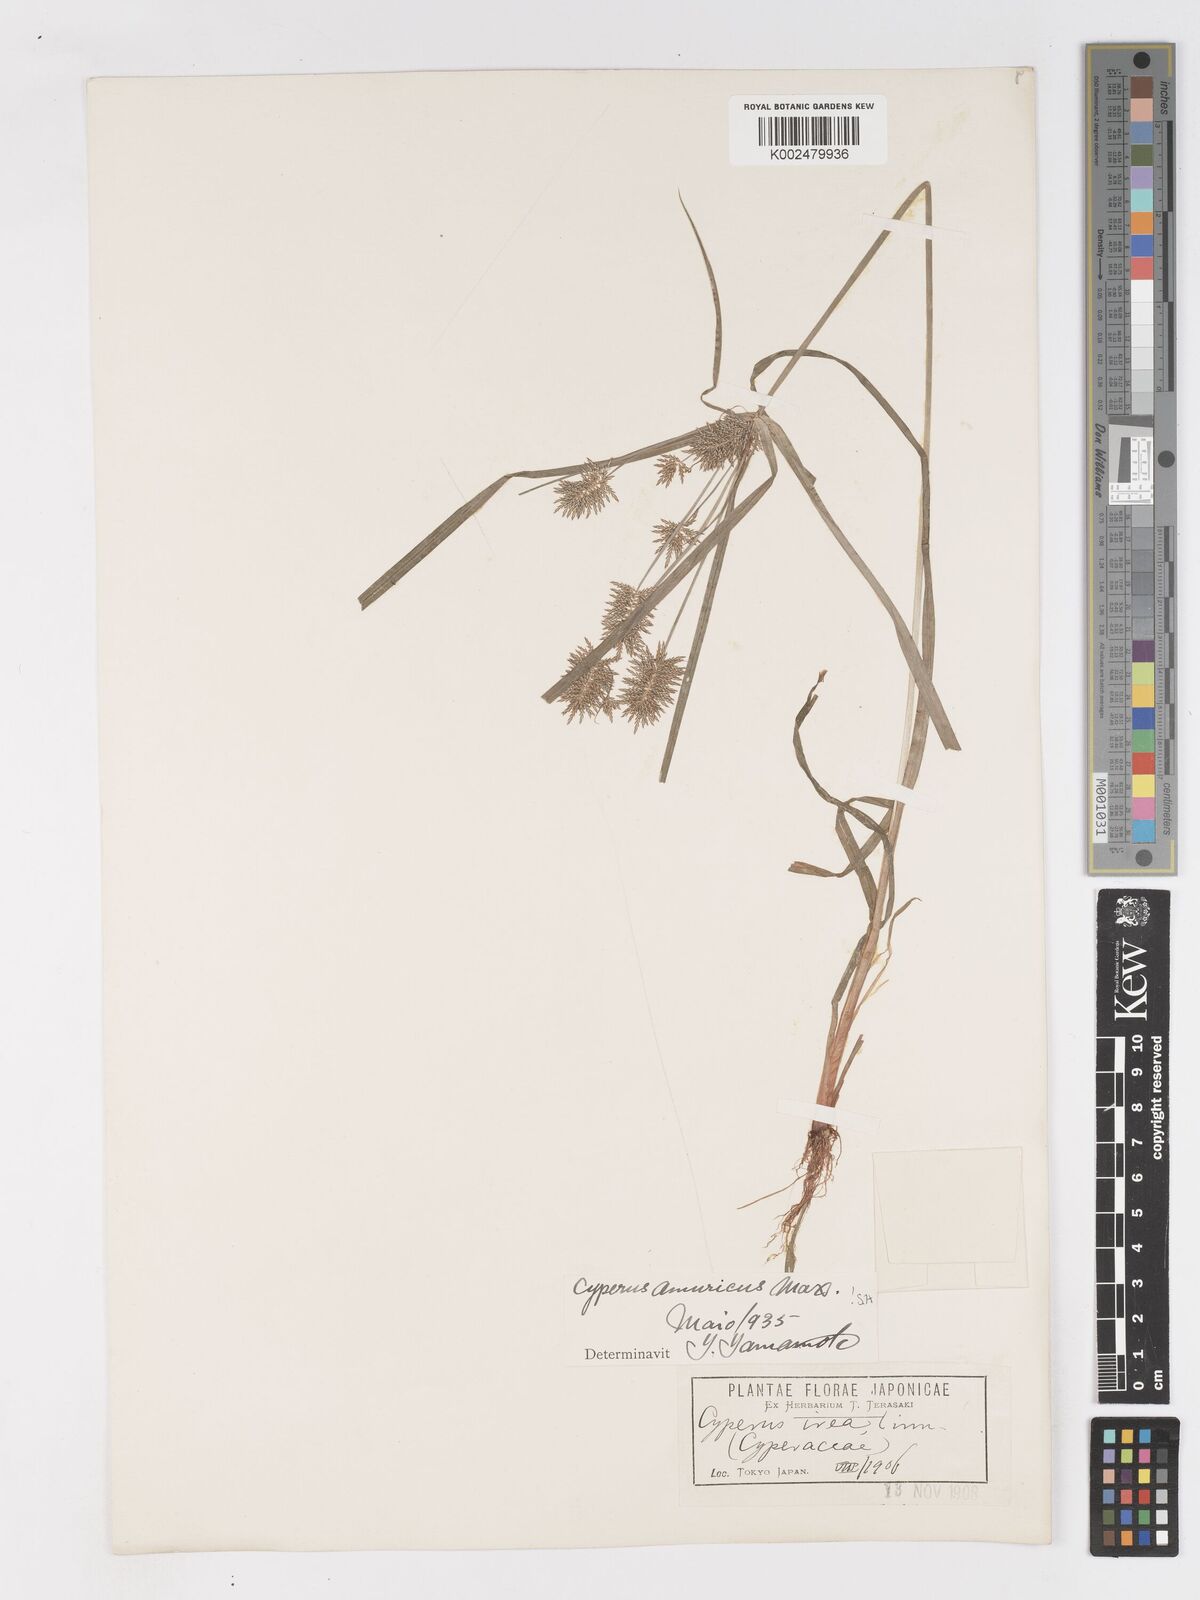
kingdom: Plantae
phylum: Tracheophyta
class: Liliopsida
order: Poales
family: Cyperaceae
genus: Cyperus
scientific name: Cyperus amuricus
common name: Asian flatsedge
